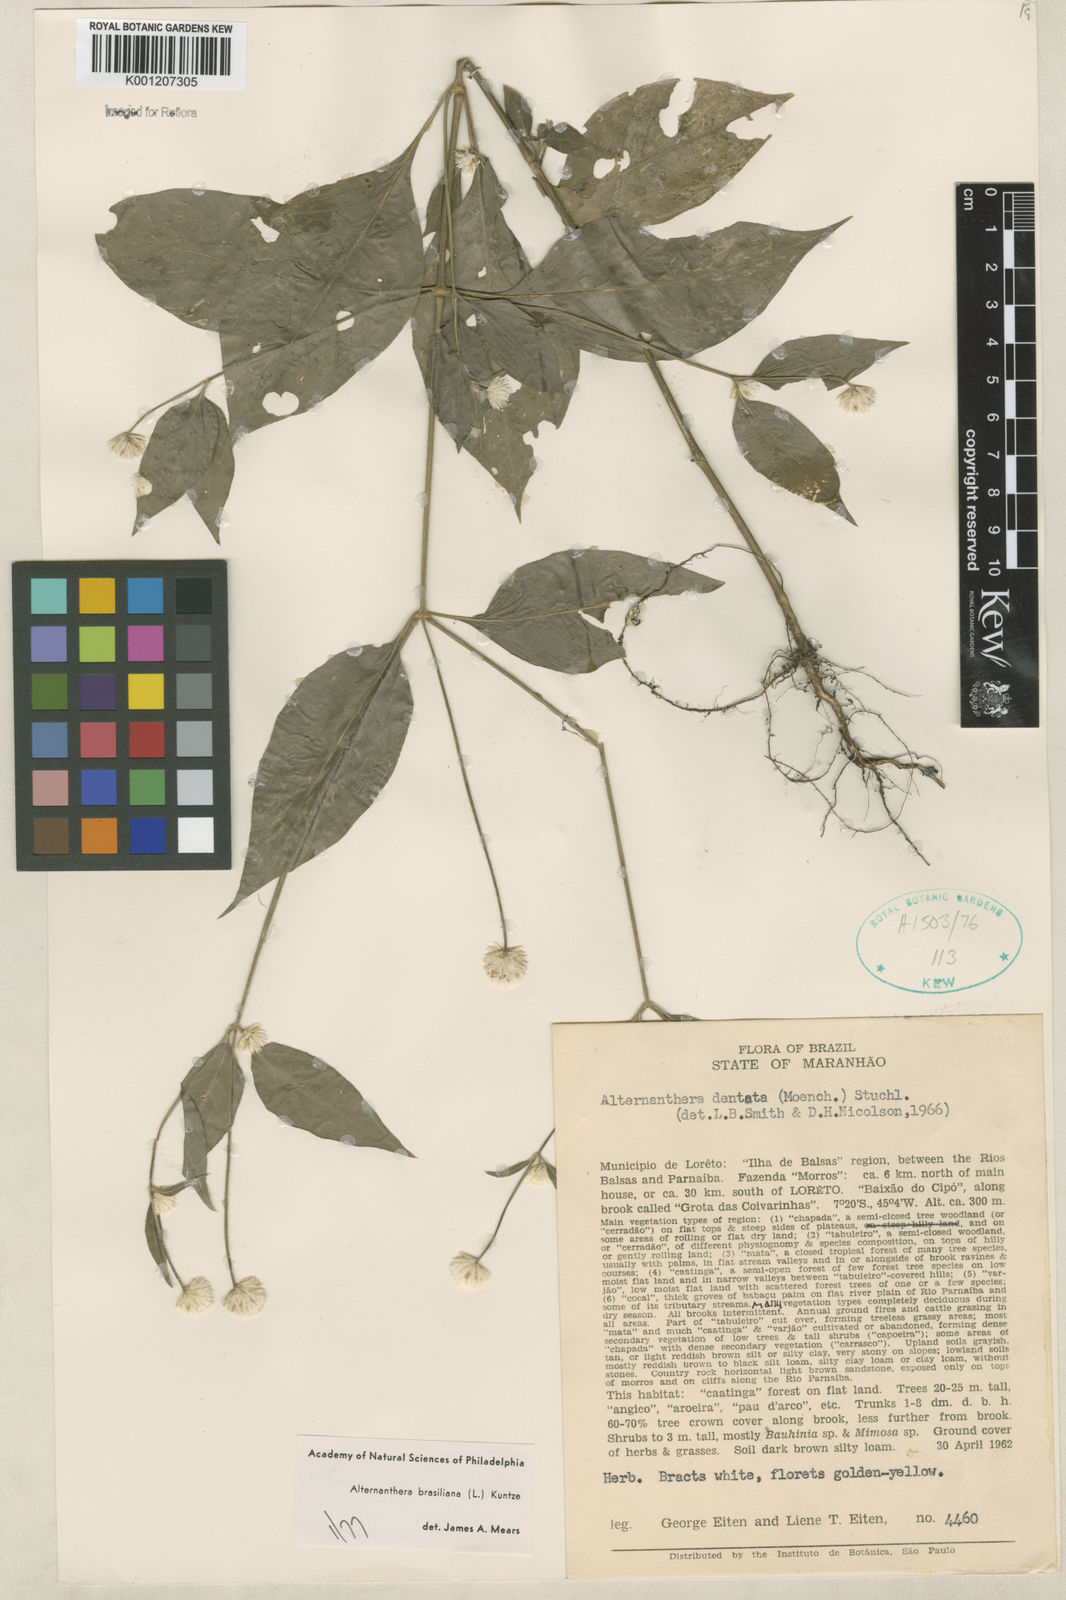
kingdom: Plantae
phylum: Tracheophyta
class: Magnoliopsida
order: Caryophyllales
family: Amaranthaceae
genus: Alternanthera
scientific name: Alternanthera brasiliana
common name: Brazilian joyweed
